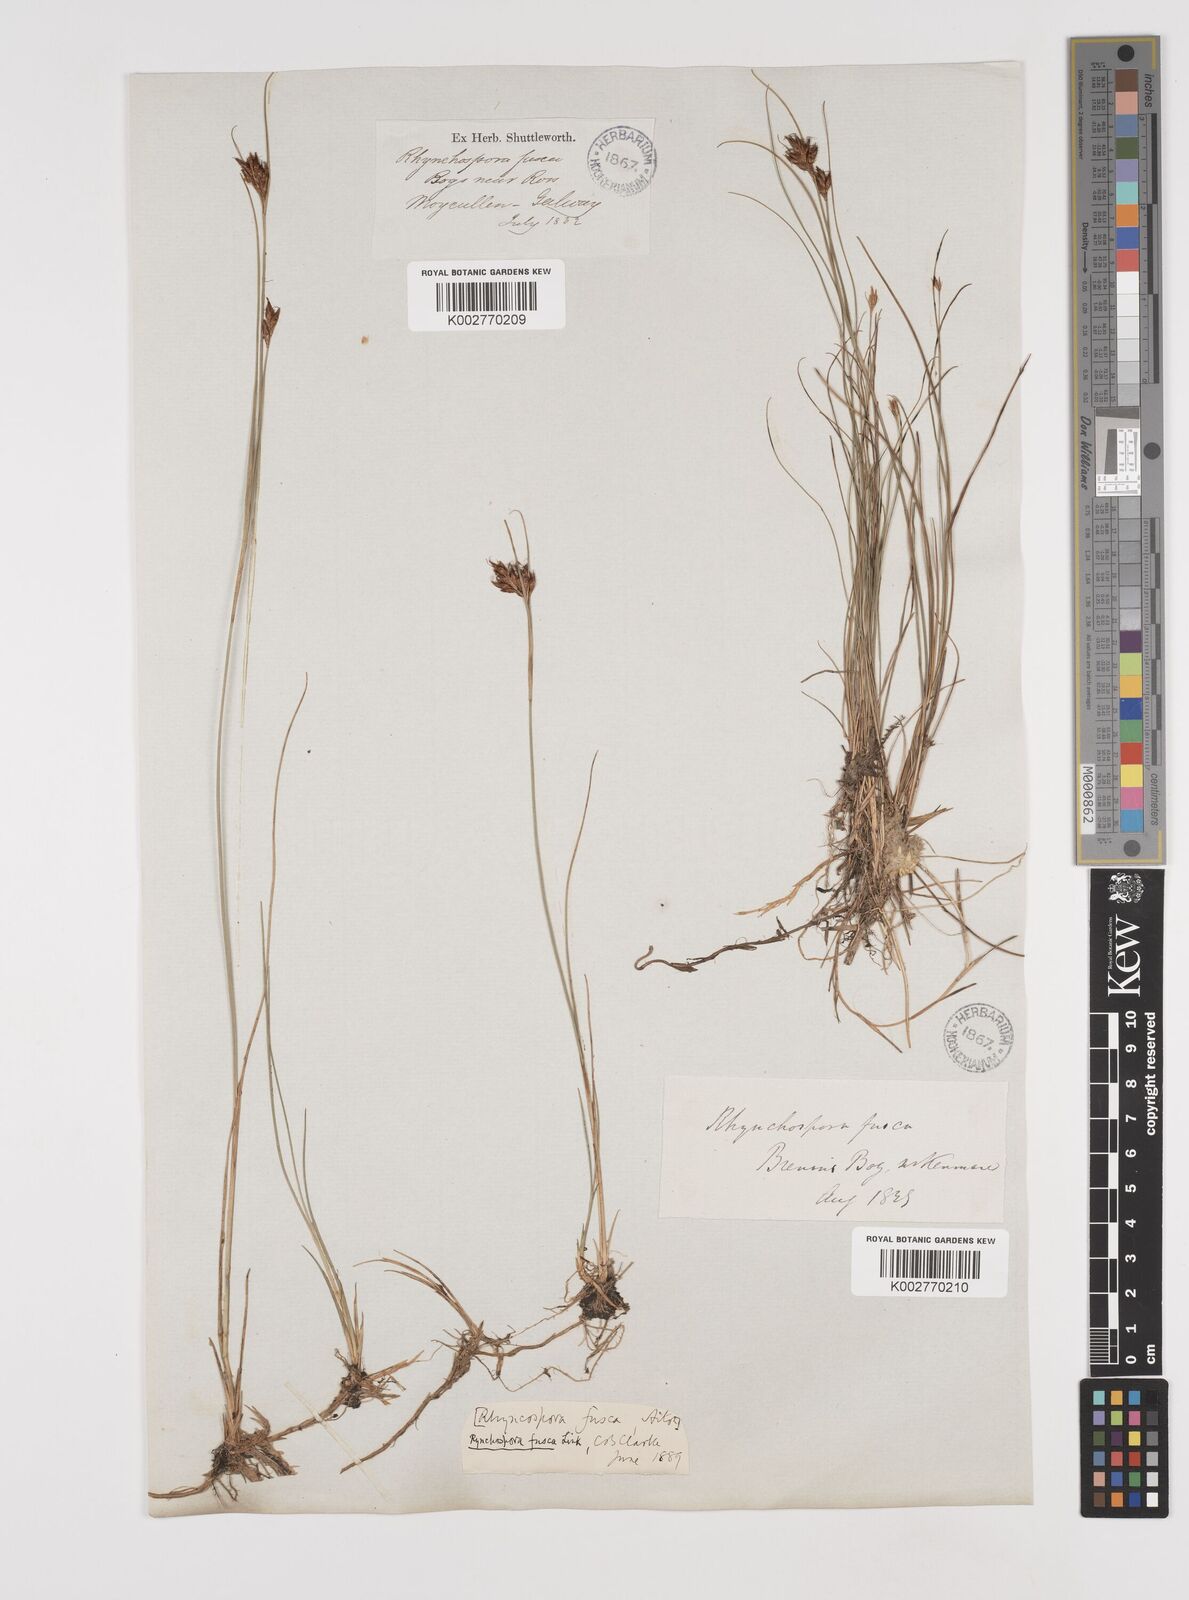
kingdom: Plantae
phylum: Tracheophyta
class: Liliopsida
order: Poales
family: Cyperaceae
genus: Rhynchospora
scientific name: Rhynchospora fusca
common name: Brown beak-sedge
